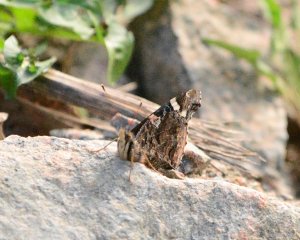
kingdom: Animalia
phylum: Arthropoda
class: Insecta
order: Lepidoptera
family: Nymphalidae
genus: Vanessa
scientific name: Vanessa atalanta
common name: Red Admiral
